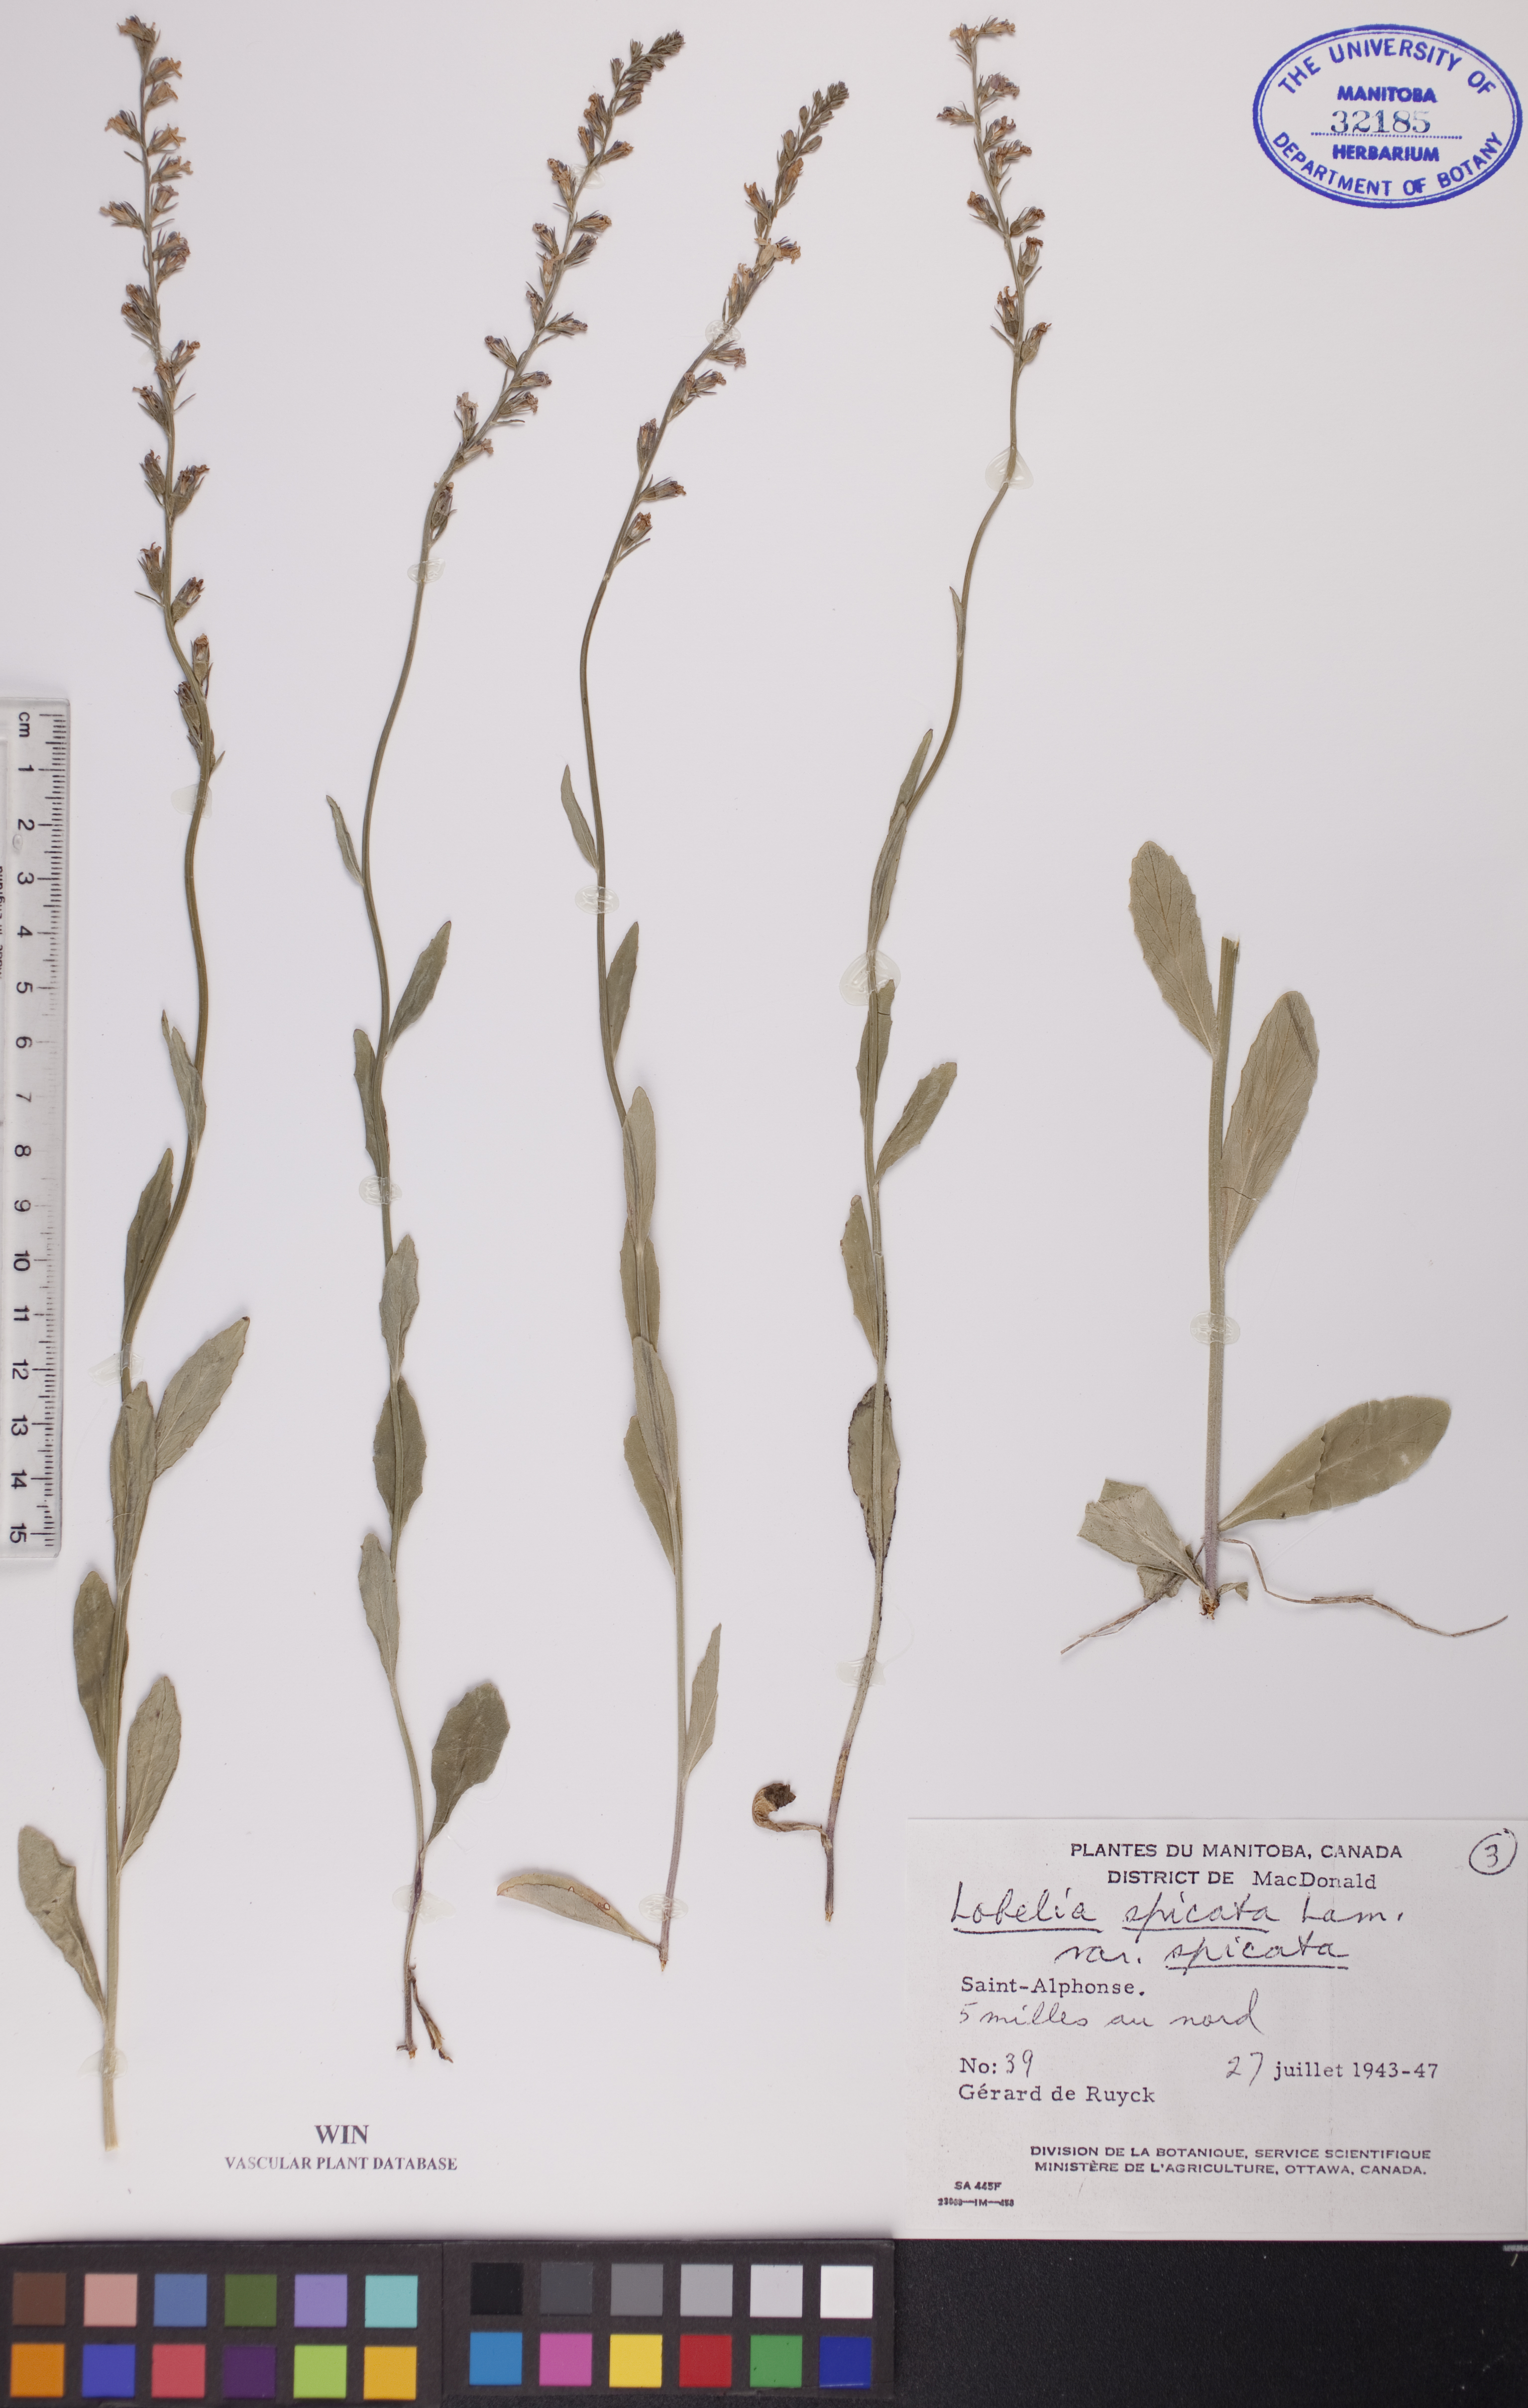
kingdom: Plantae
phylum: Tracheophyta
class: Magnoliopsida
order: Asterales
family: Campanulaceae
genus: Lobelia
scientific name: Lobelia spicata
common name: Pale-spike lobelia
